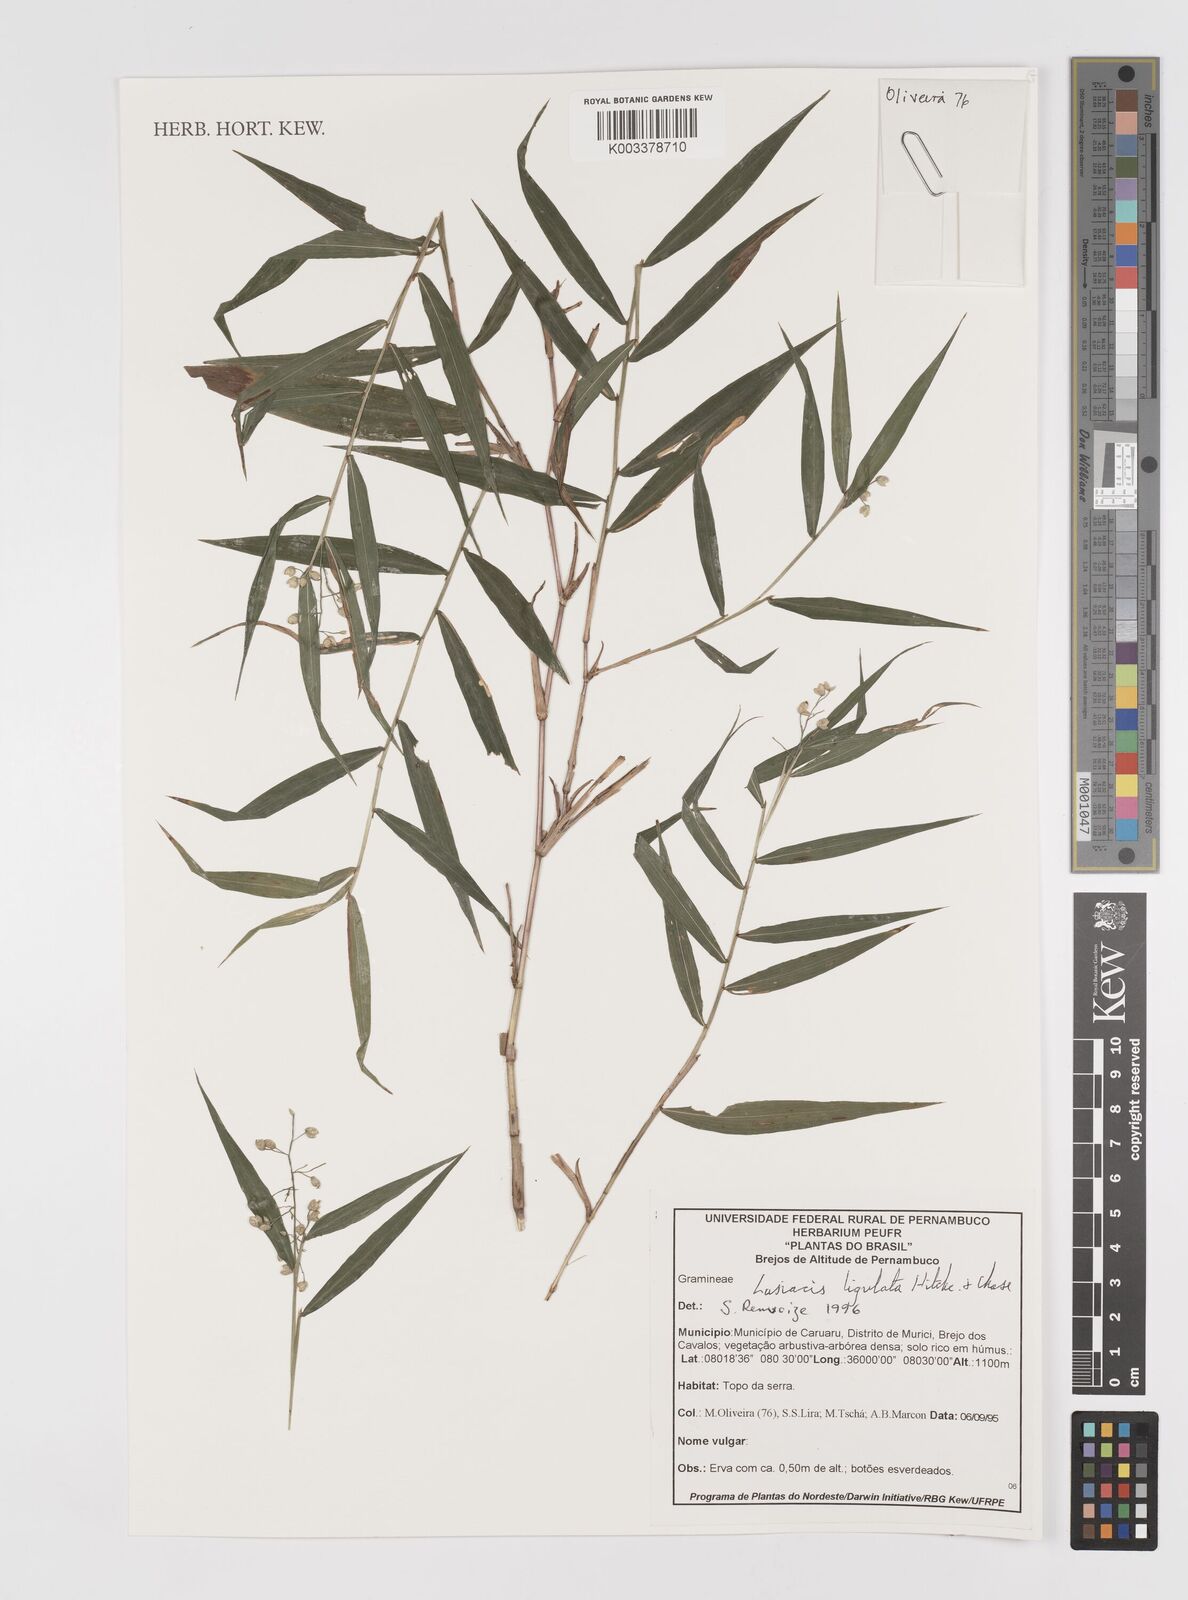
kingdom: Plantae
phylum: Tracheophyta
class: Liliopsida
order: Poales
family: Poaceae
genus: Lasiacis
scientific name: Lasiacis ligulata
